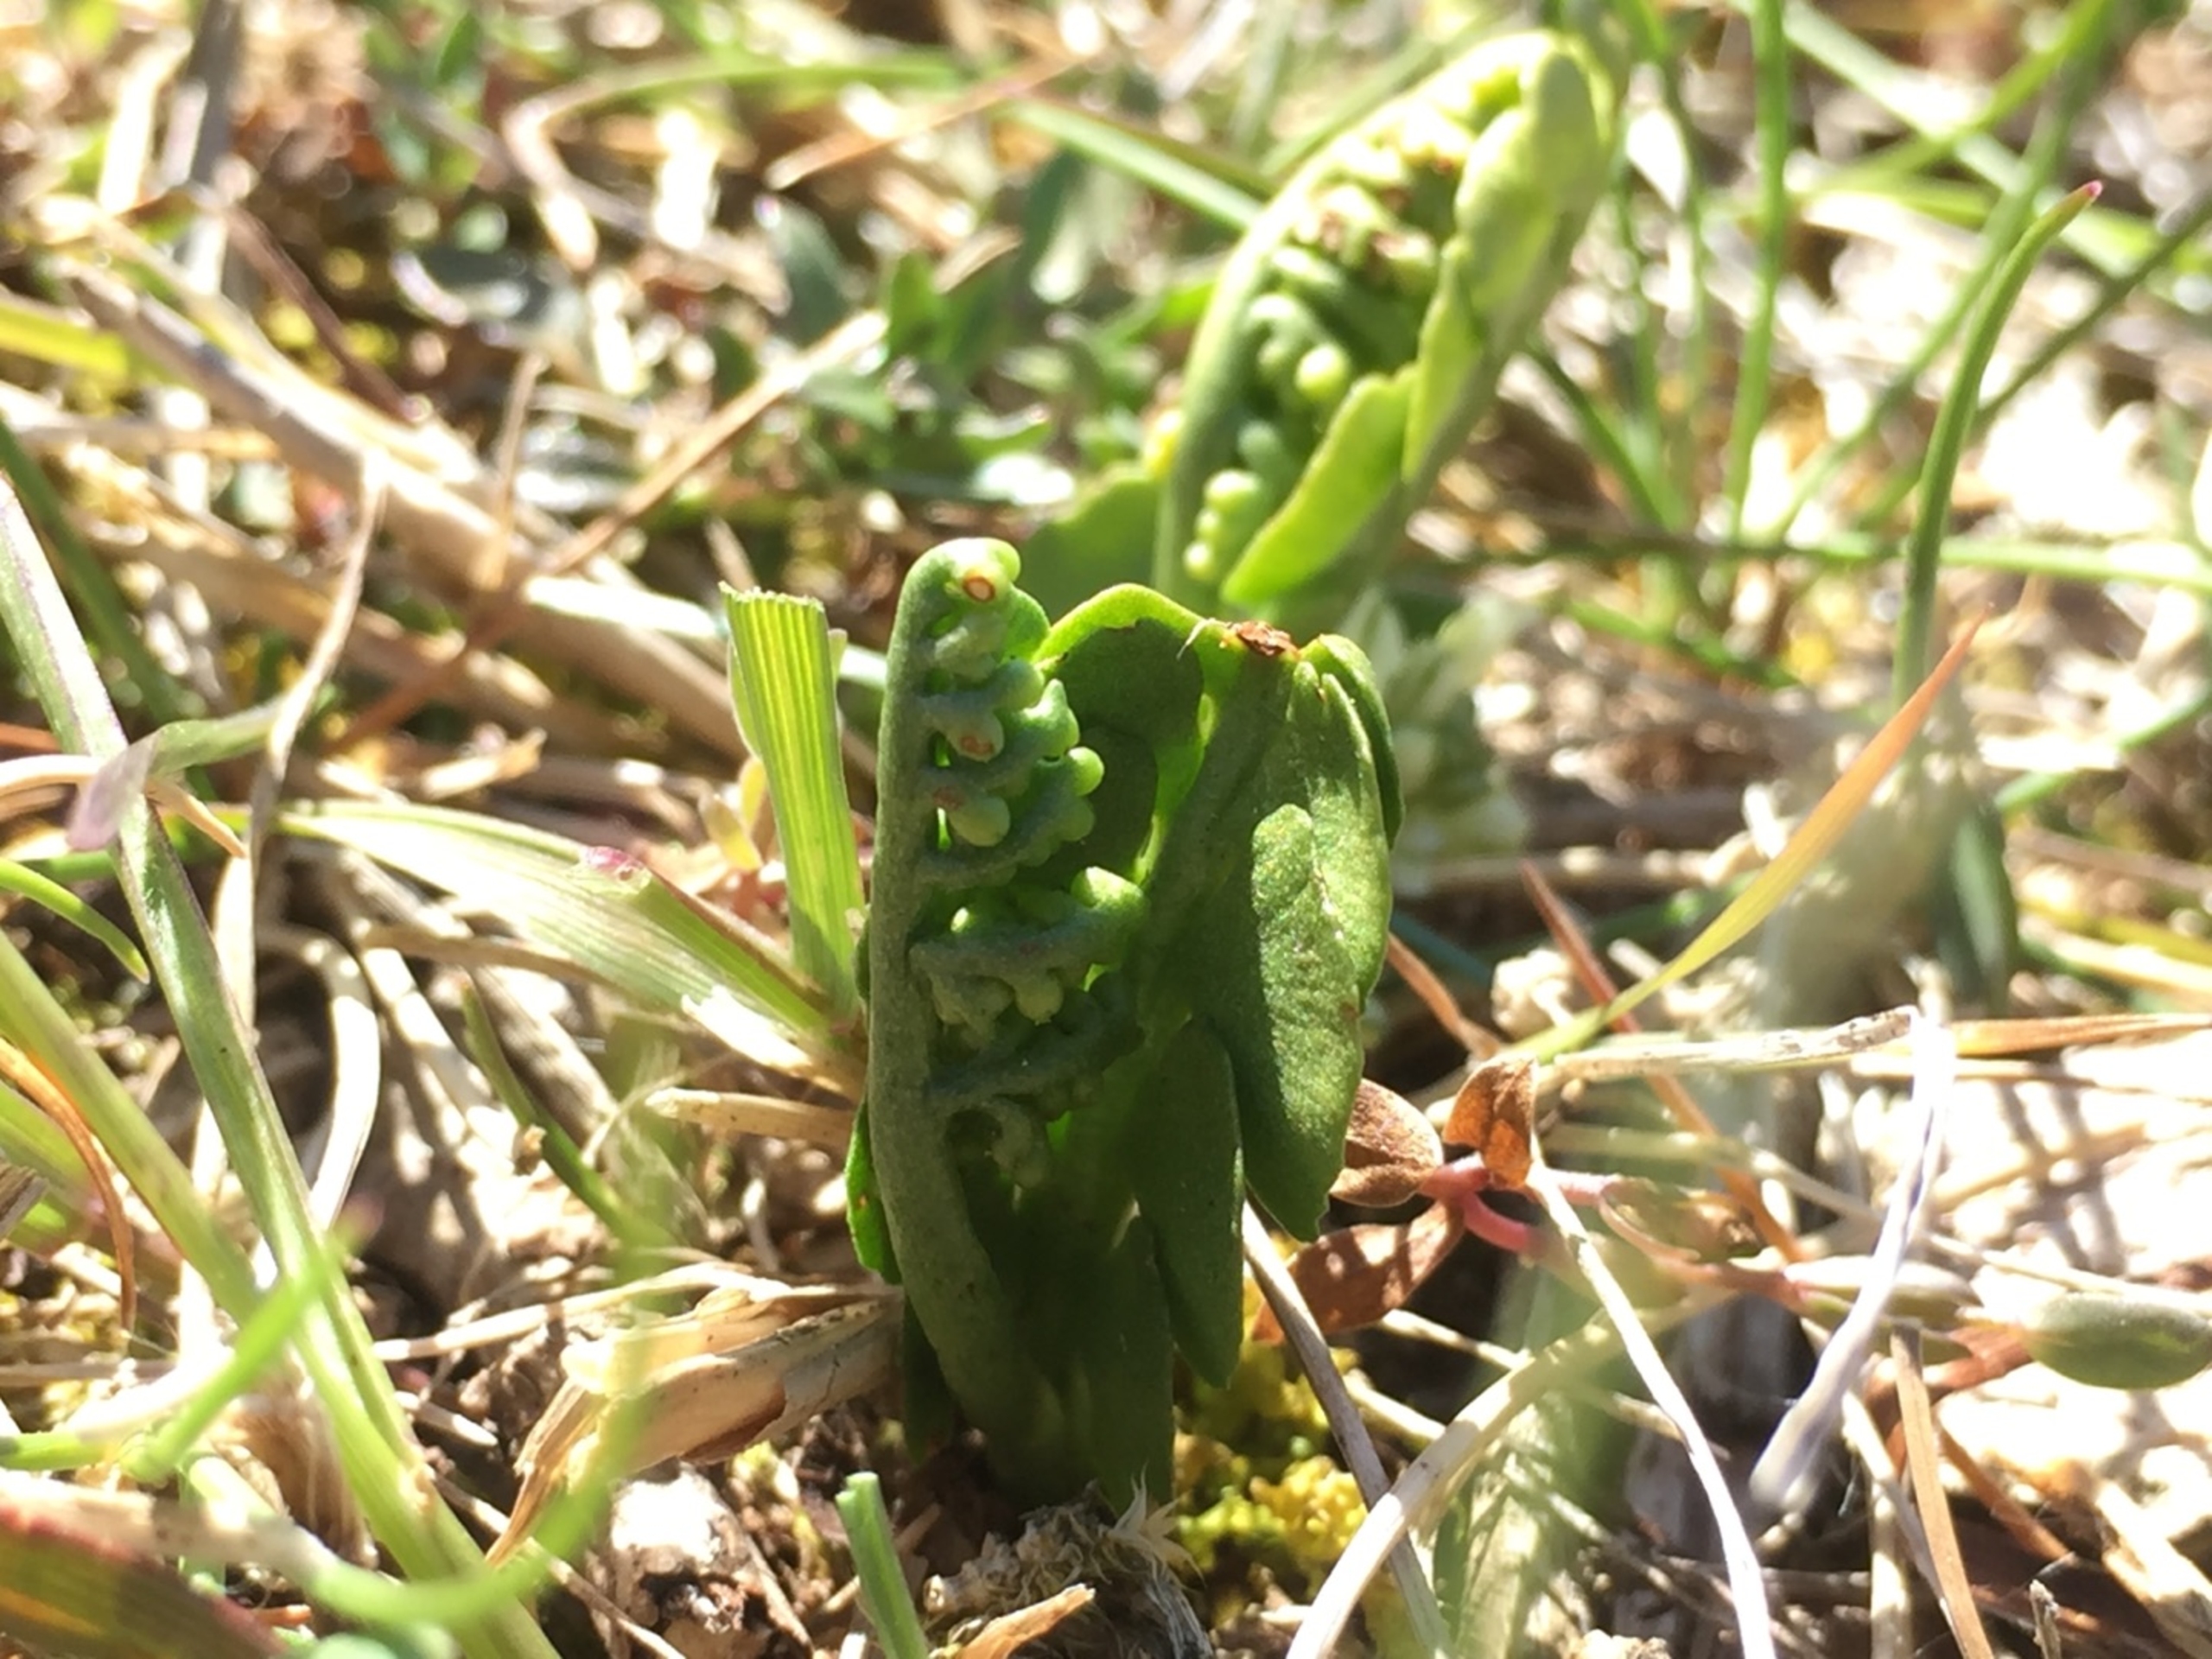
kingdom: Plantae
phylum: Tracheophyta
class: Polypodiopsida
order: Ophioglossales
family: Ophioglossaceae
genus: Botrychium
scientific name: Botrychium lunaria
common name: Almindelig månerude
